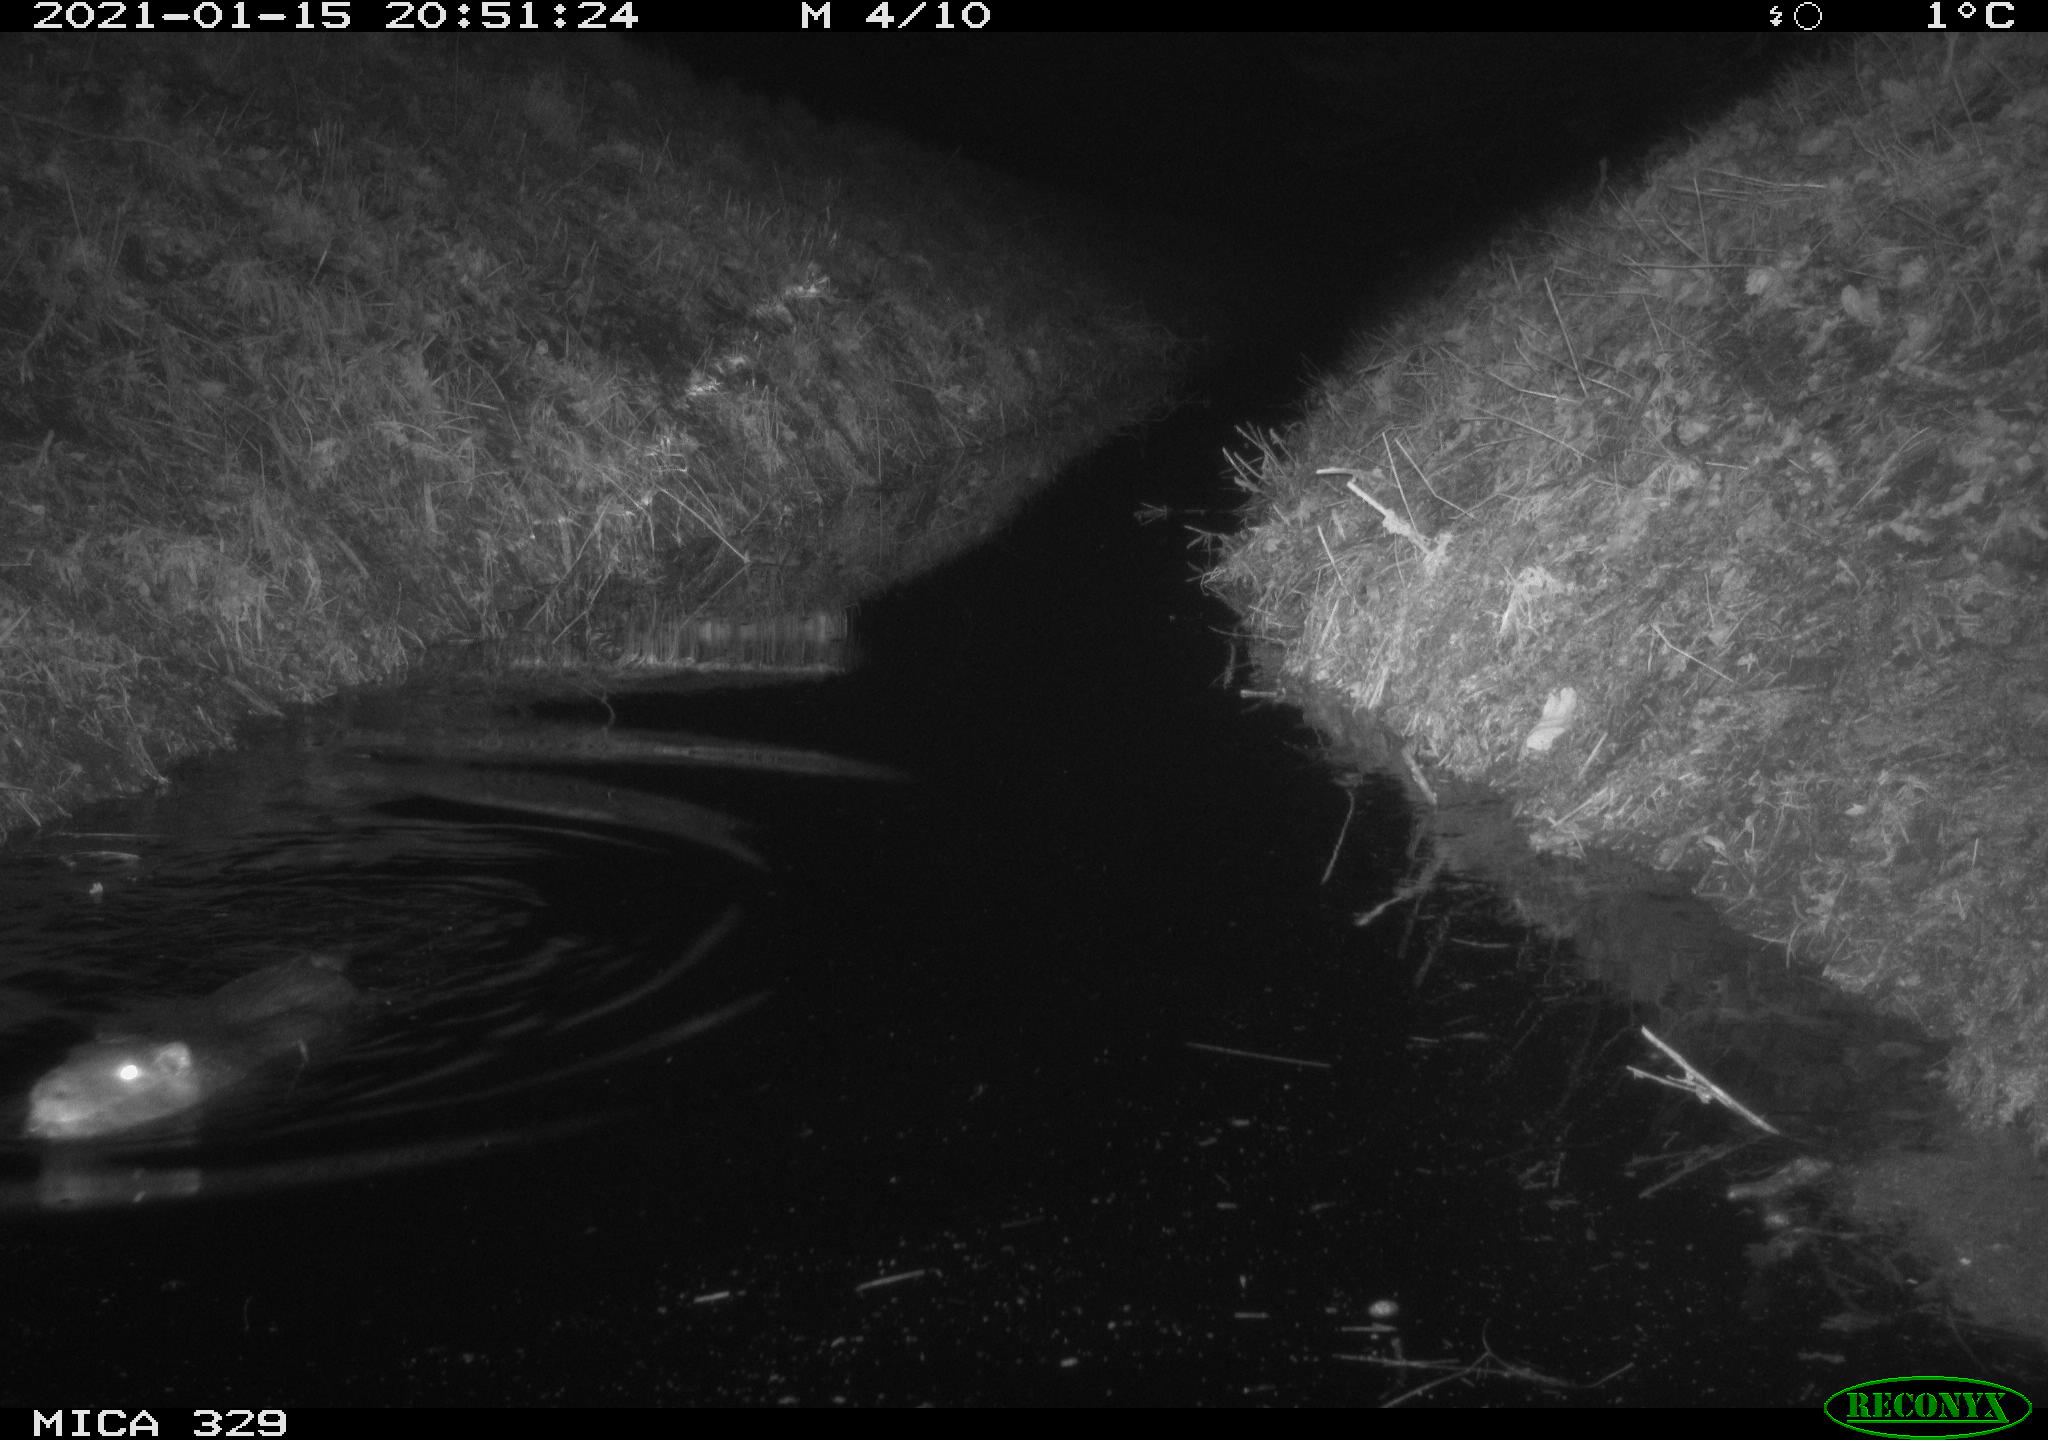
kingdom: Animalia
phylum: Chordata
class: Mammalia
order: Rodentia
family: Myocastoridae
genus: Myocastor
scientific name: Myocastor coypus
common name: Coypu
